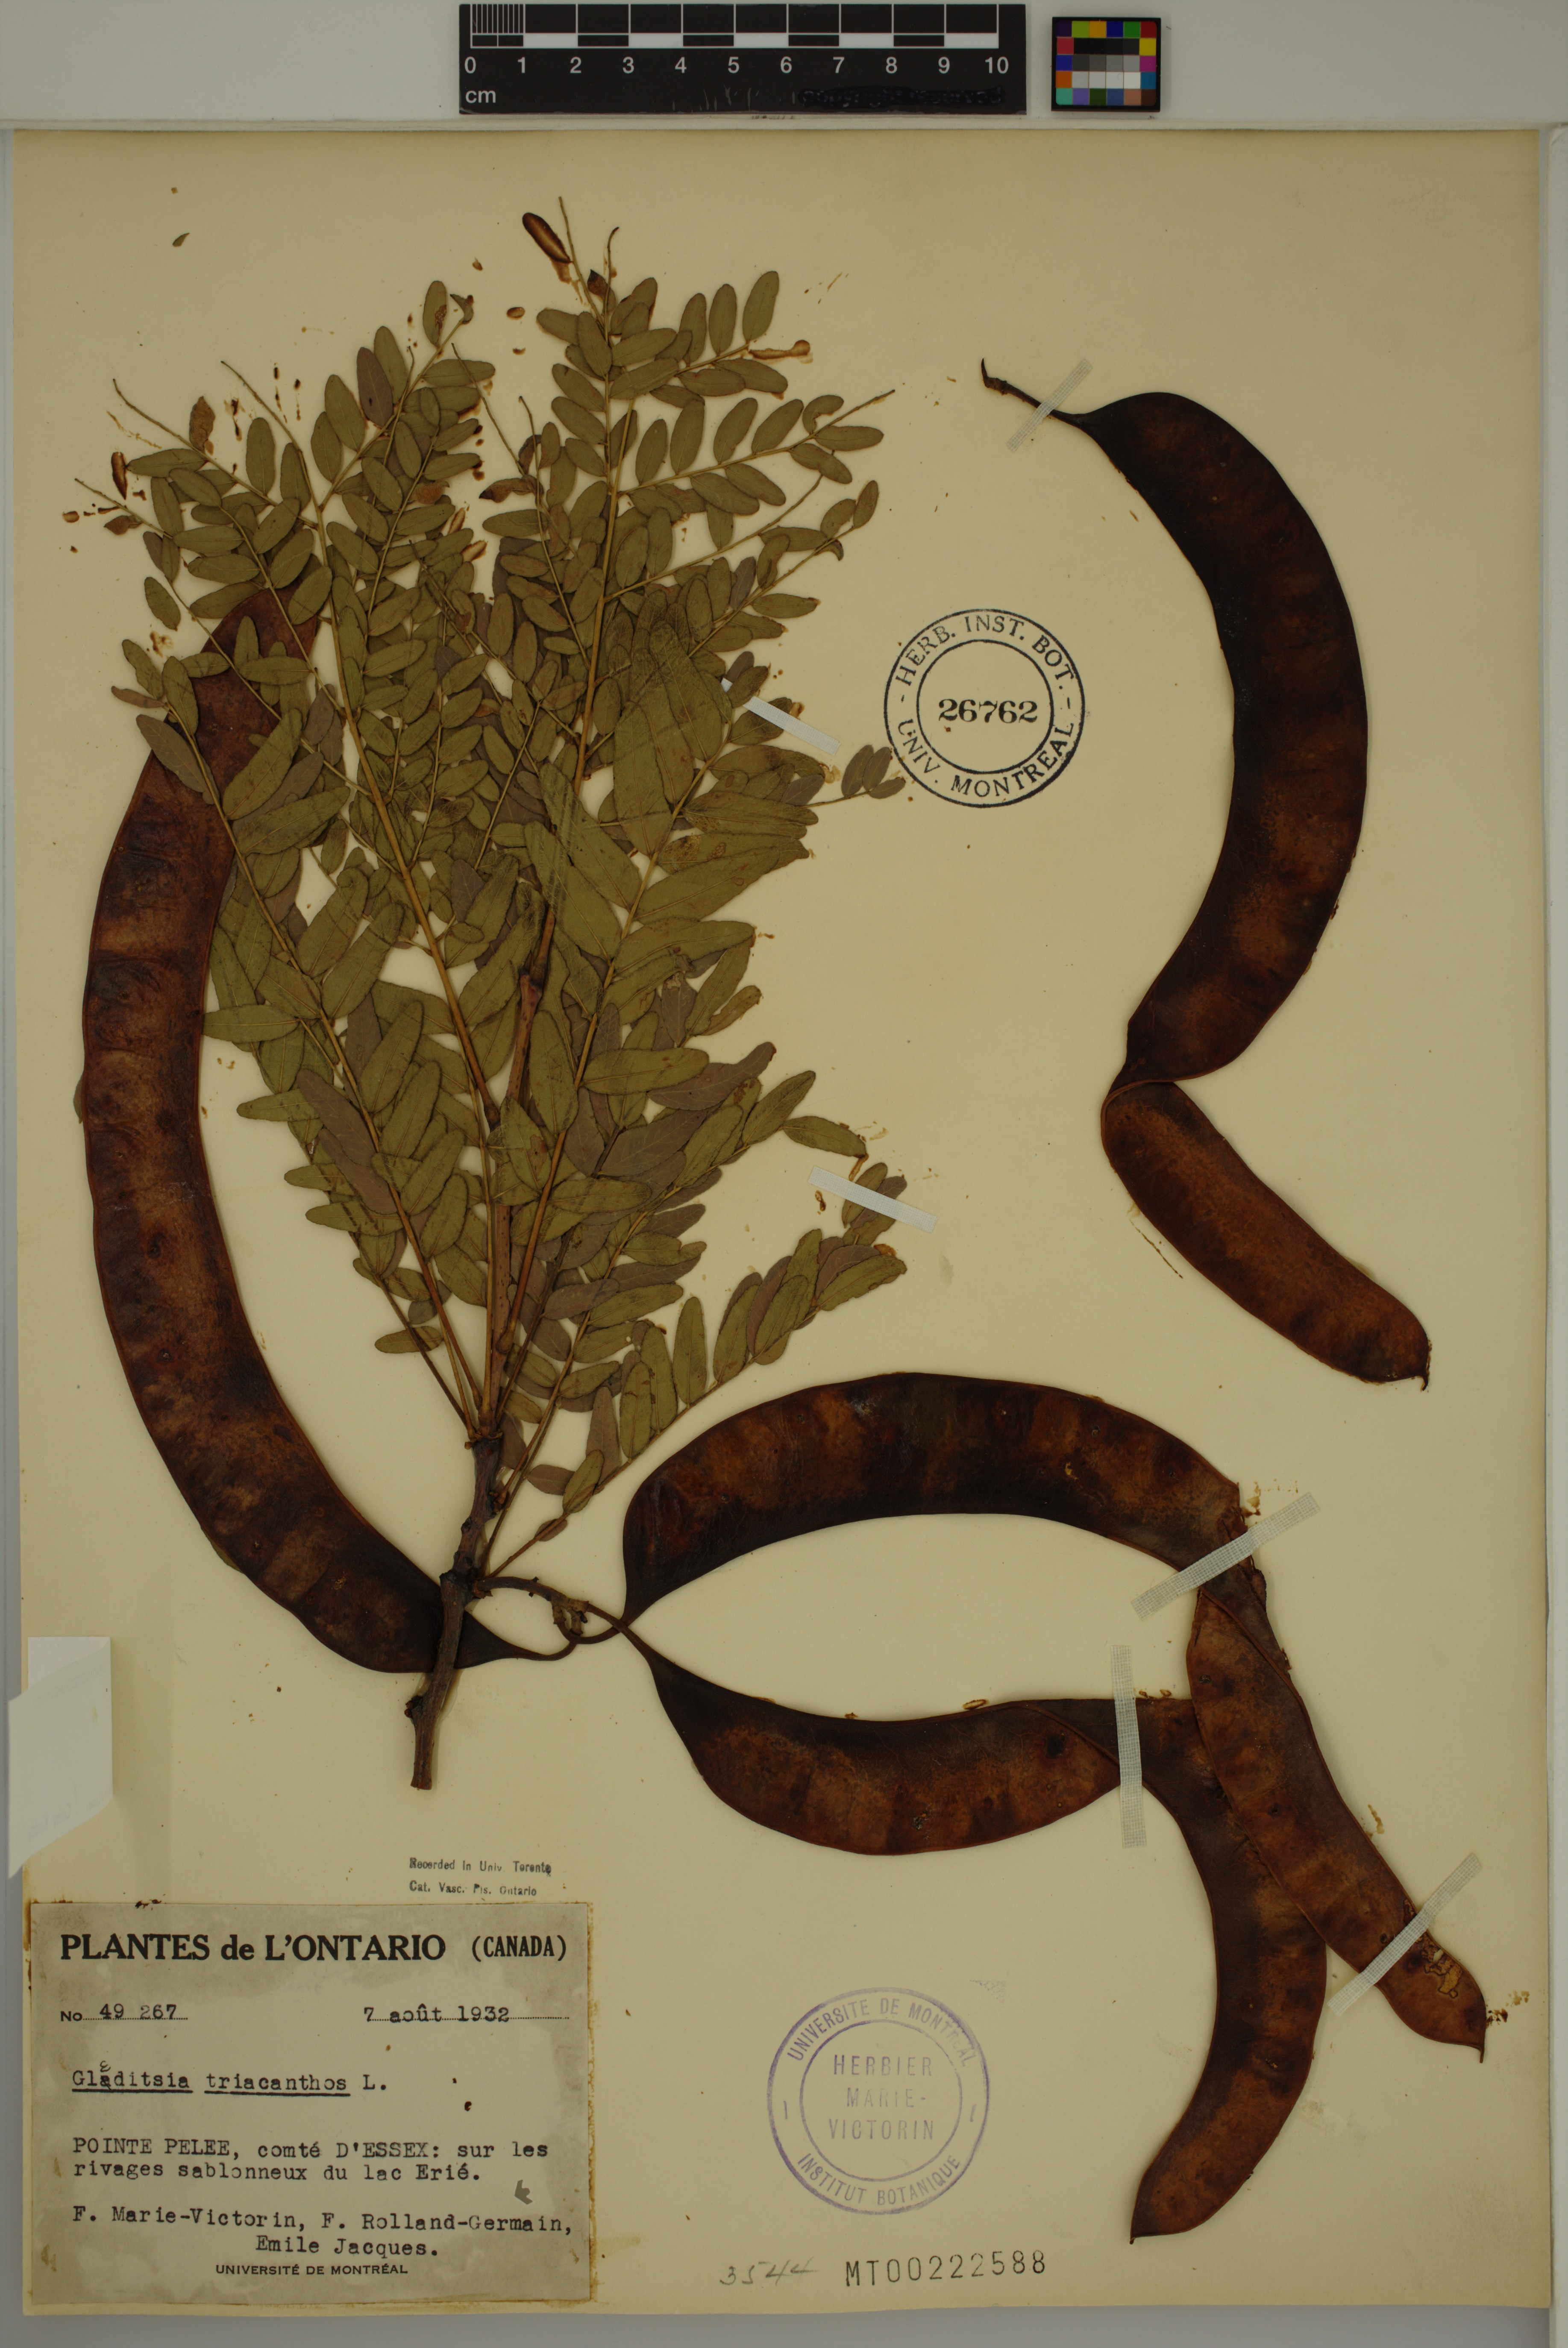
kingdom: Plantae
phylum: Tracheophyta
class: Magnoliopsida
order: Fabales
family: Fabaceae
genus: Gleditsia
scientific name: Gleditsia triacanthos
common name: Common honeylocust
